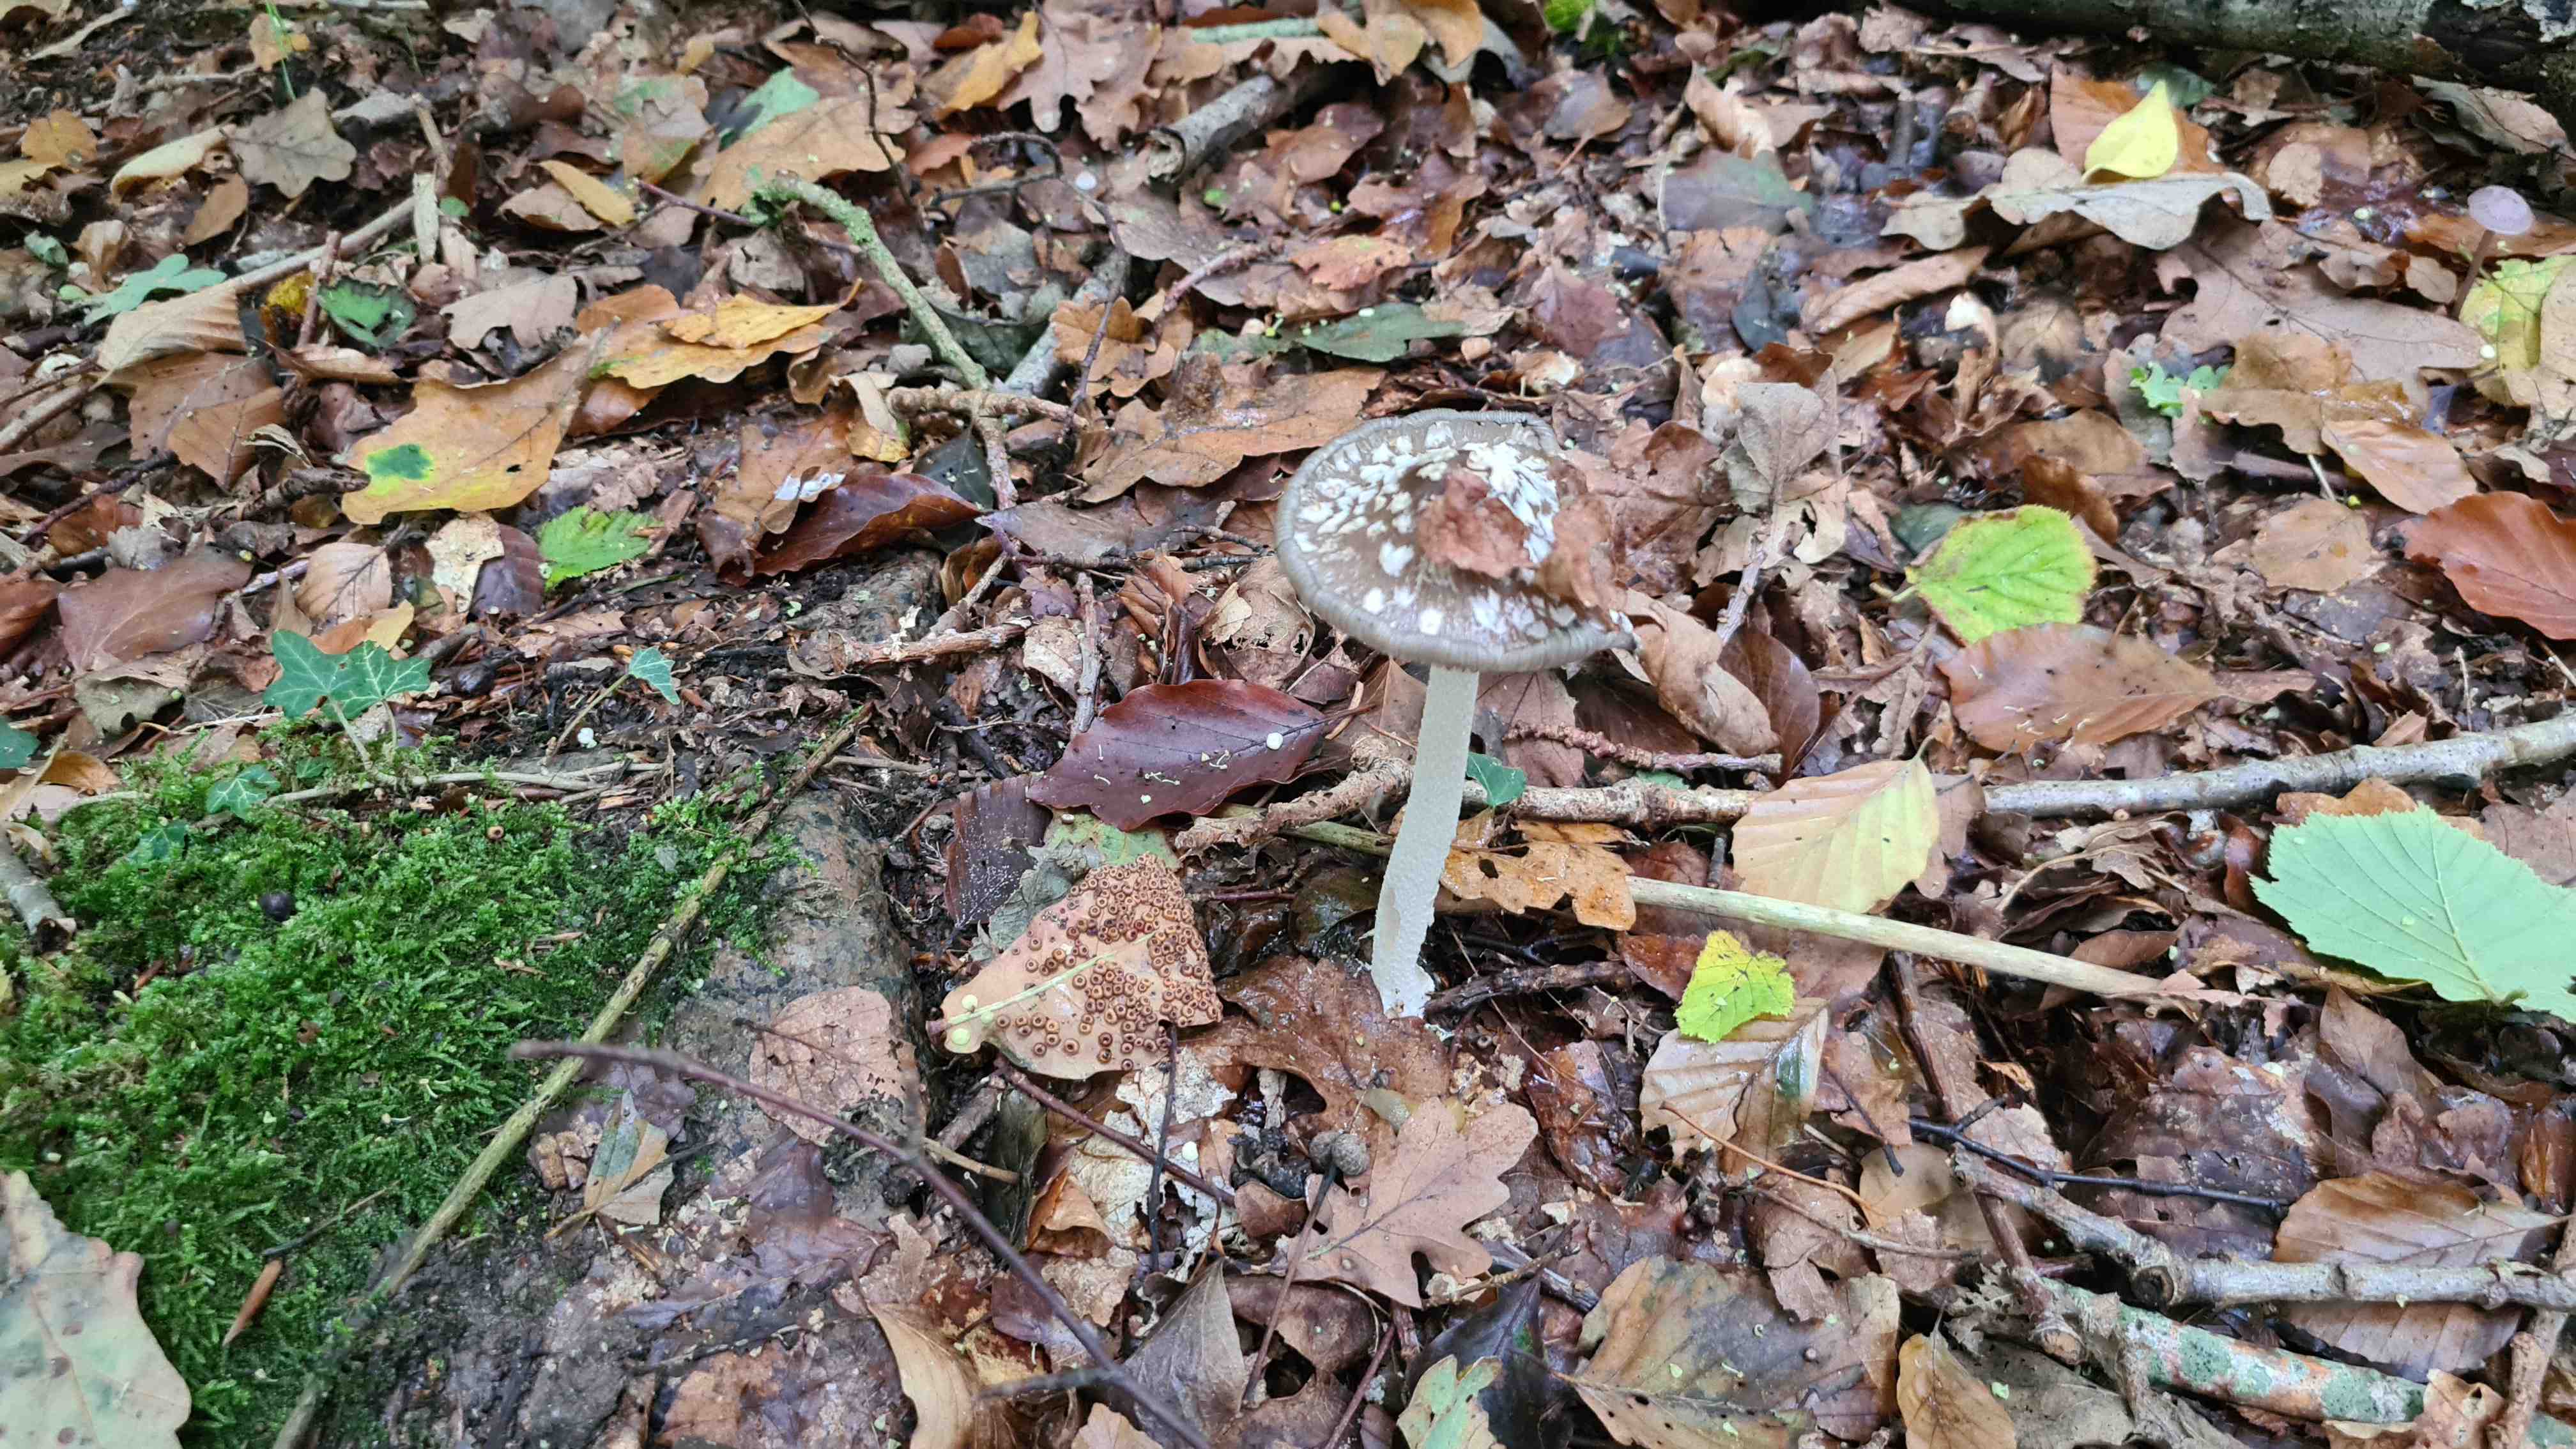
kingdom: Fungi
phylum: Basidiomycota
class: Agaricomycetes
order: Agaricales
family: Psathyrellaceae
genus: Coprinopsis
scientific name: Coprinopsis picacea
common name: skade-blækhat
